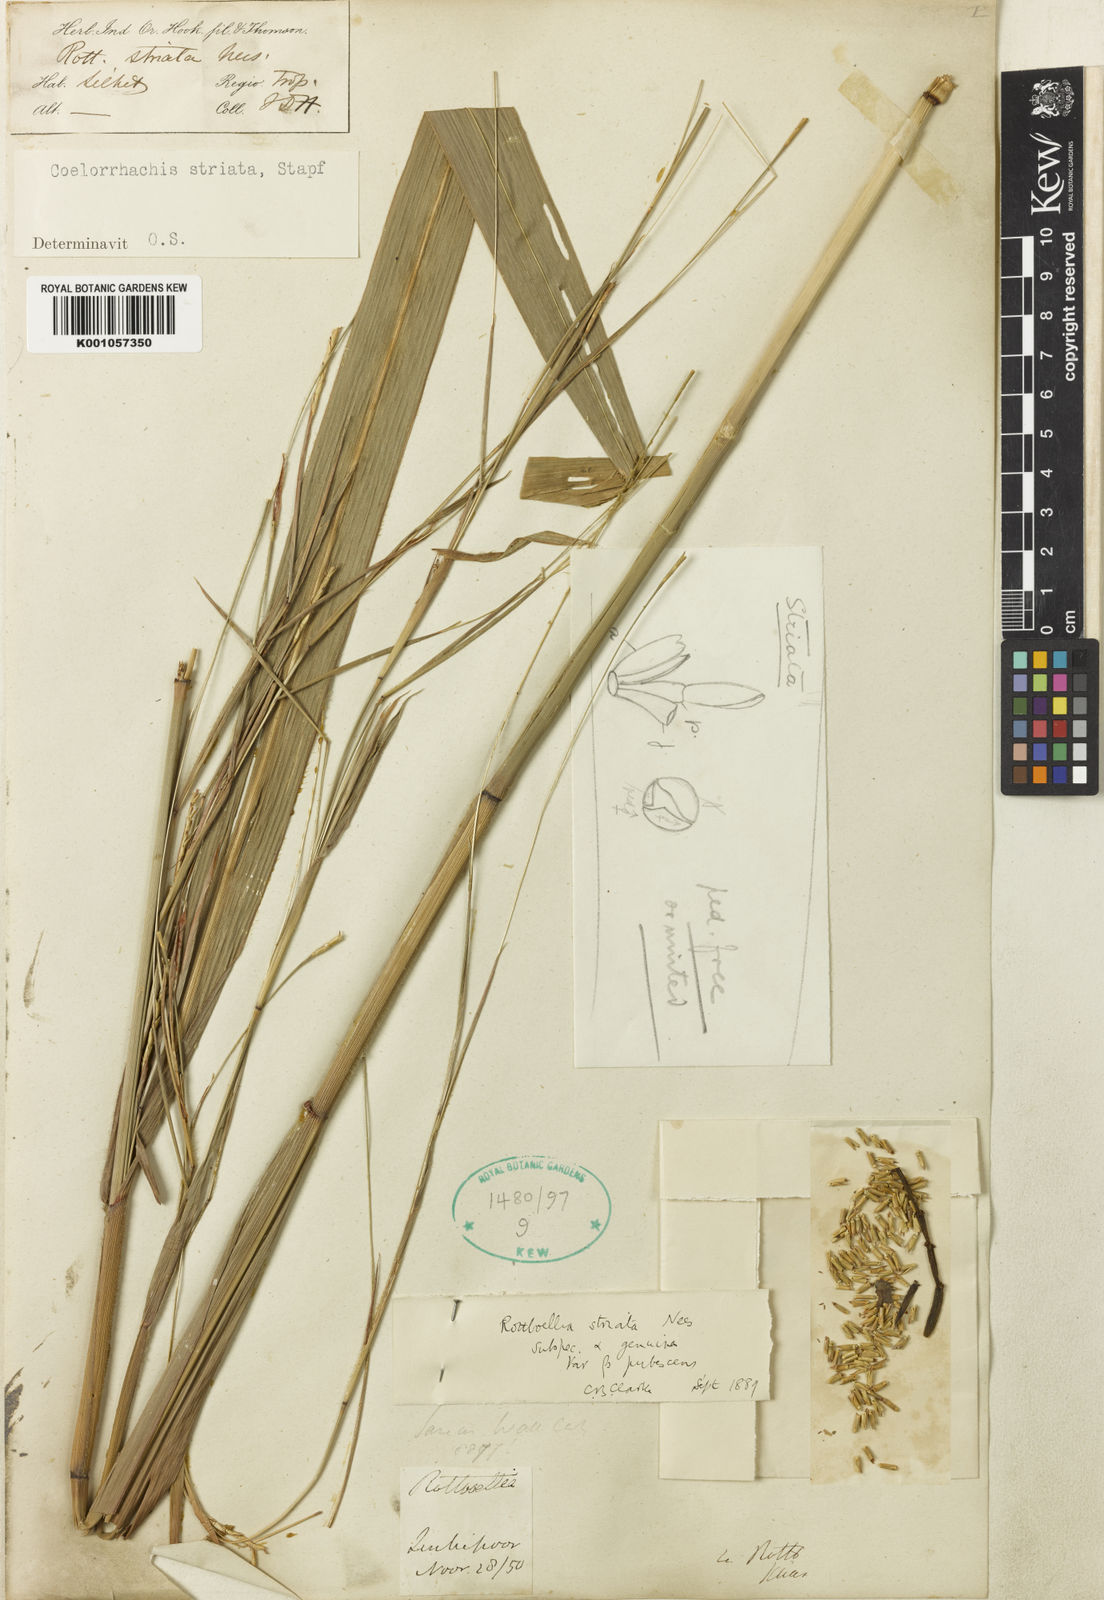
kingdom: Plantae
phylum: Tracheophyta
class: Liliopsida
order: Poales
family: Poaceae
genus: Rottboellia
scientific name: Rottboellia striata
